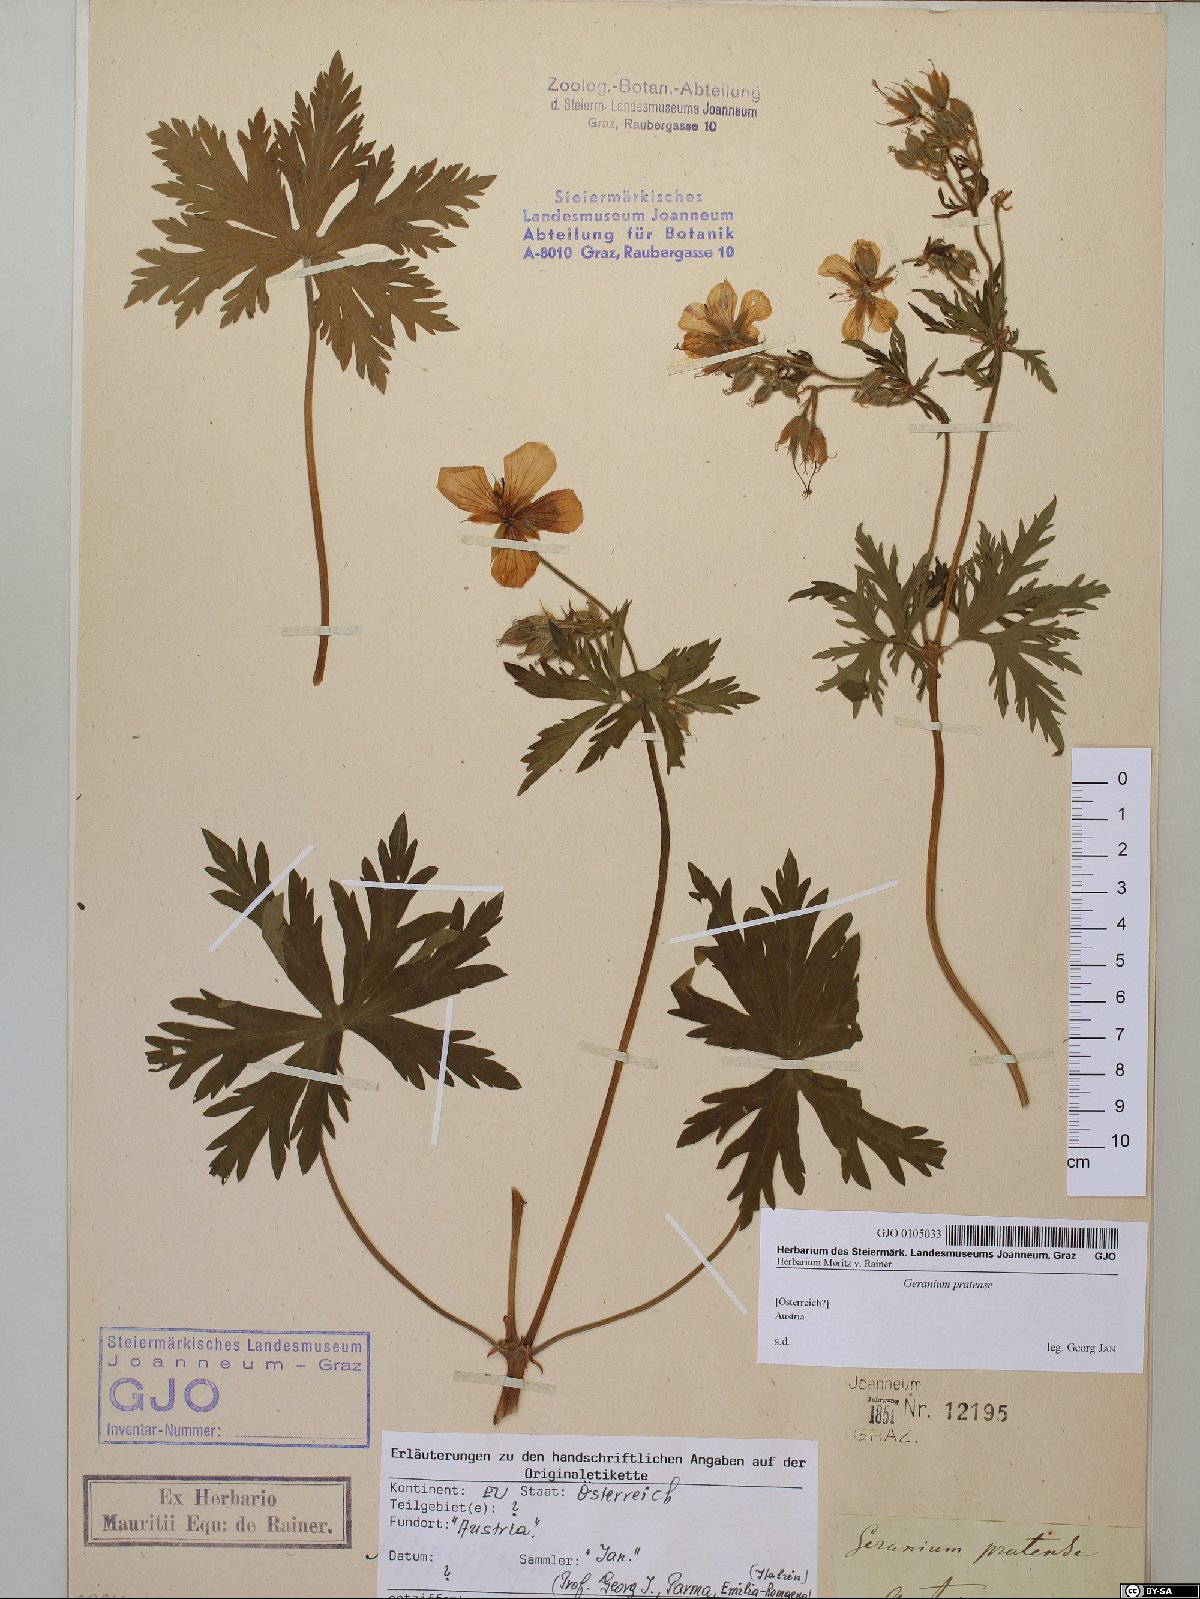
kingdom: Plantae
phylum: Tracheophyta
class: Magnoliopsida
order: Geraniales
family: Geraniaceae
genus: Geranium
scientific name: Geranium pratense
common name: Meadow crane's-bill
